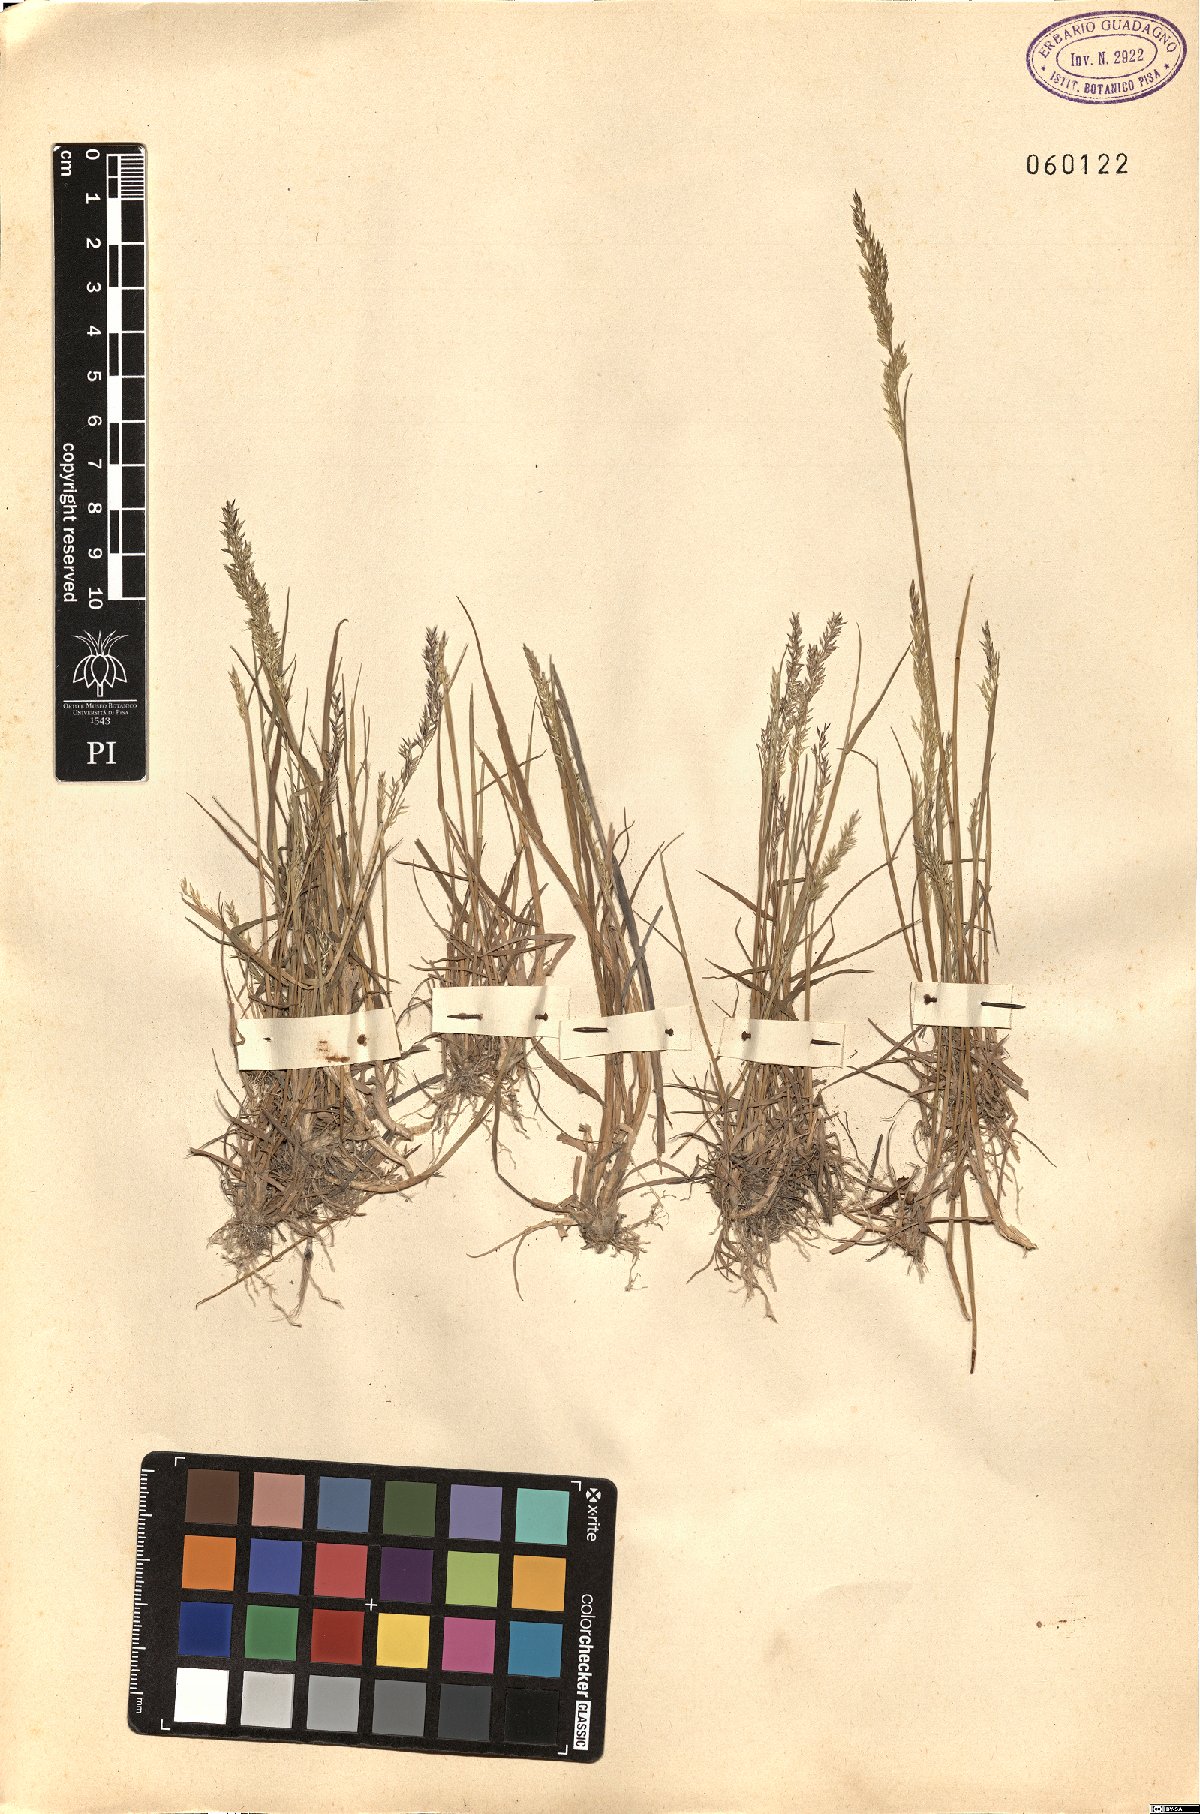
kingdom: Plantae
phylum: Tracheophyta
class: Liliopsida
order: Poales
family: Poaceae
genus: Agrostis
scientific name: Agrostis
